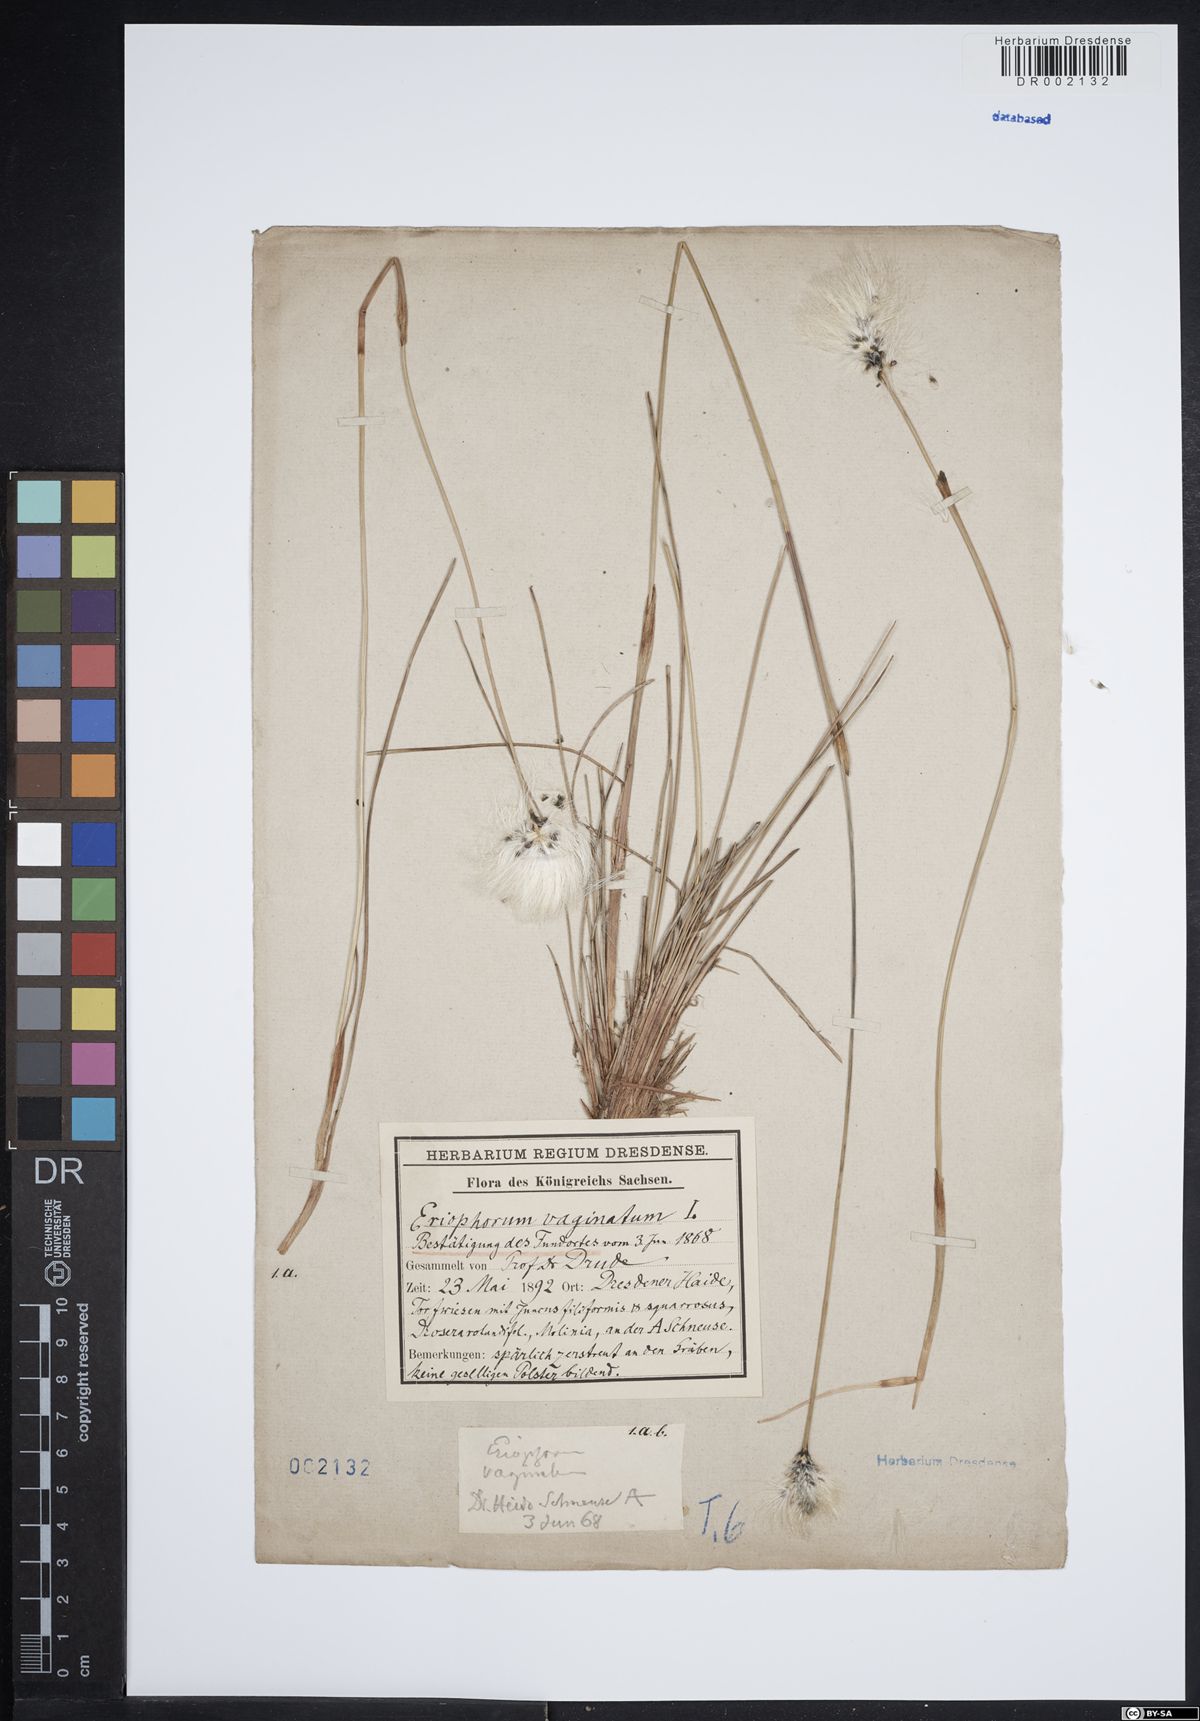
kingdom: Plantae
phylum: Tracheophyta
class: Liliopsida
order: Poales
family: Cyperaceae
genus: Eriophorum
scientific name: Eriophorum vaginatum
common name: Hare's-tail cottongrass
